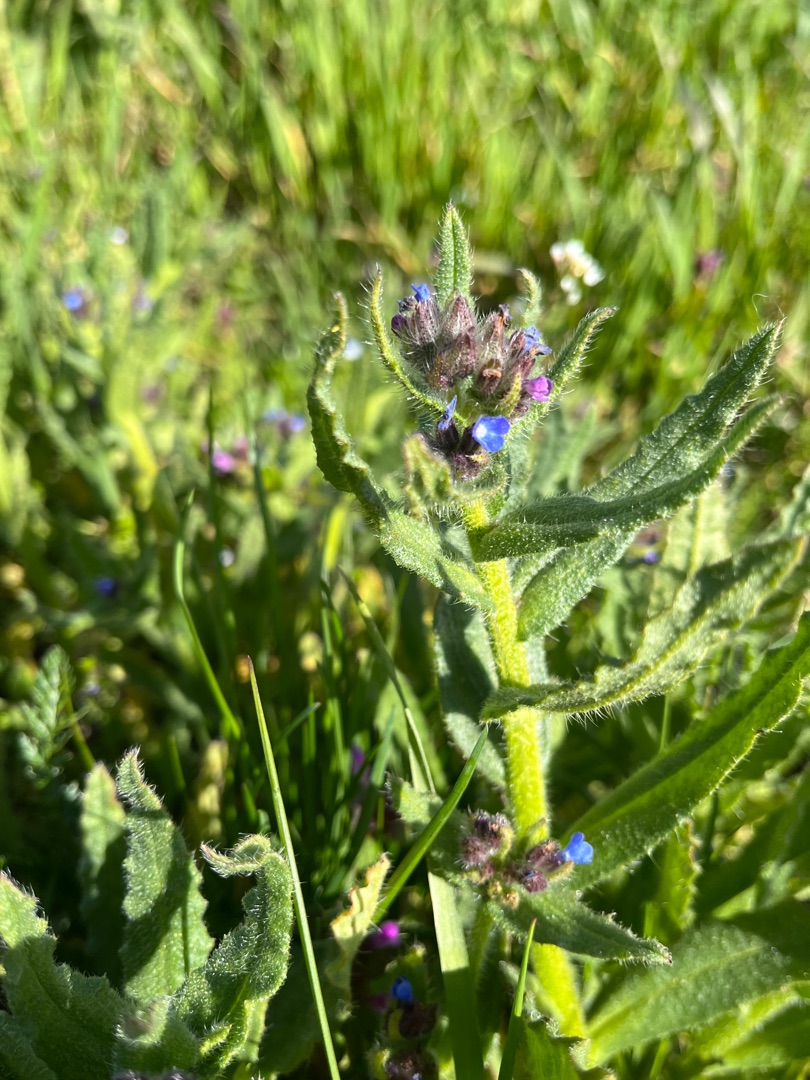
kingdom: Plantae
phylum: Tracheophyta
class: Magnoliopsida
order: Boraginales
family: Boraginaceae
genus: Lycopsis
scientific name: Lycopsis arvensis
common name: Krumhals
